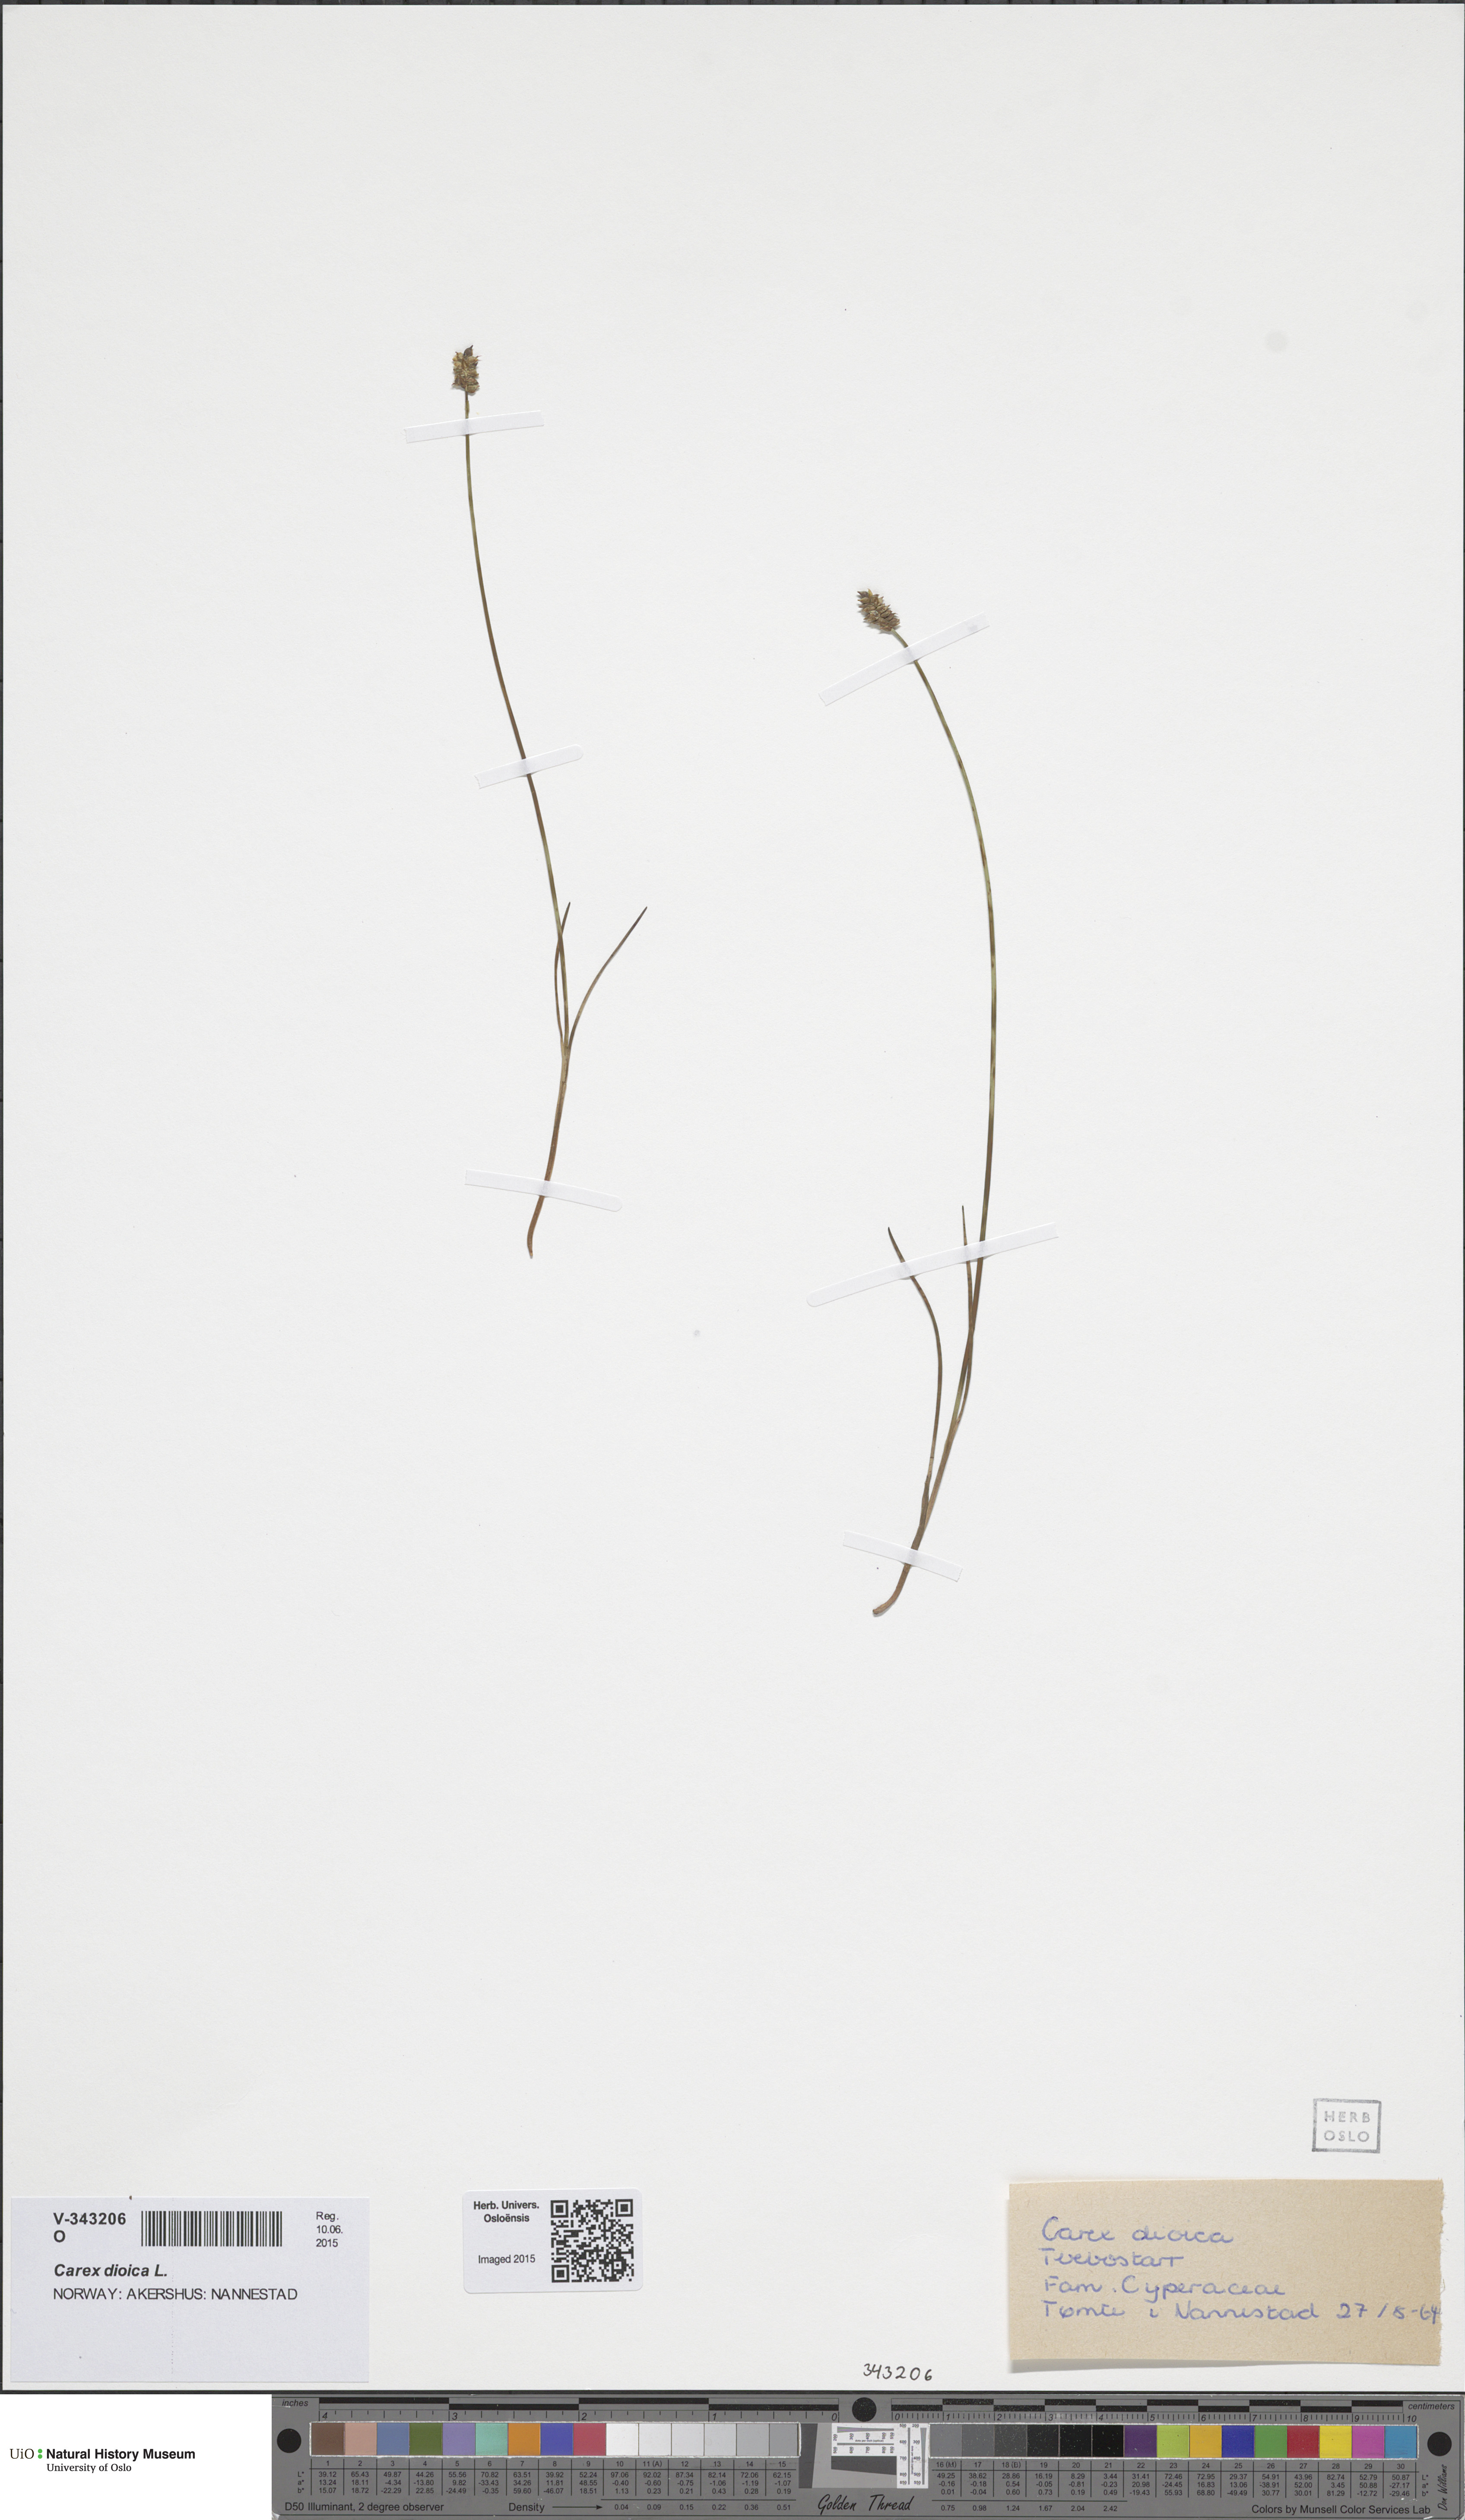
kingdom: Plantae
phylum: Tracheophyta
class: Liliopsida
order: Poales
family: Cyperaceae
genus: Carex
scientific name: Carex dioica
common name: Dioecious sedge
